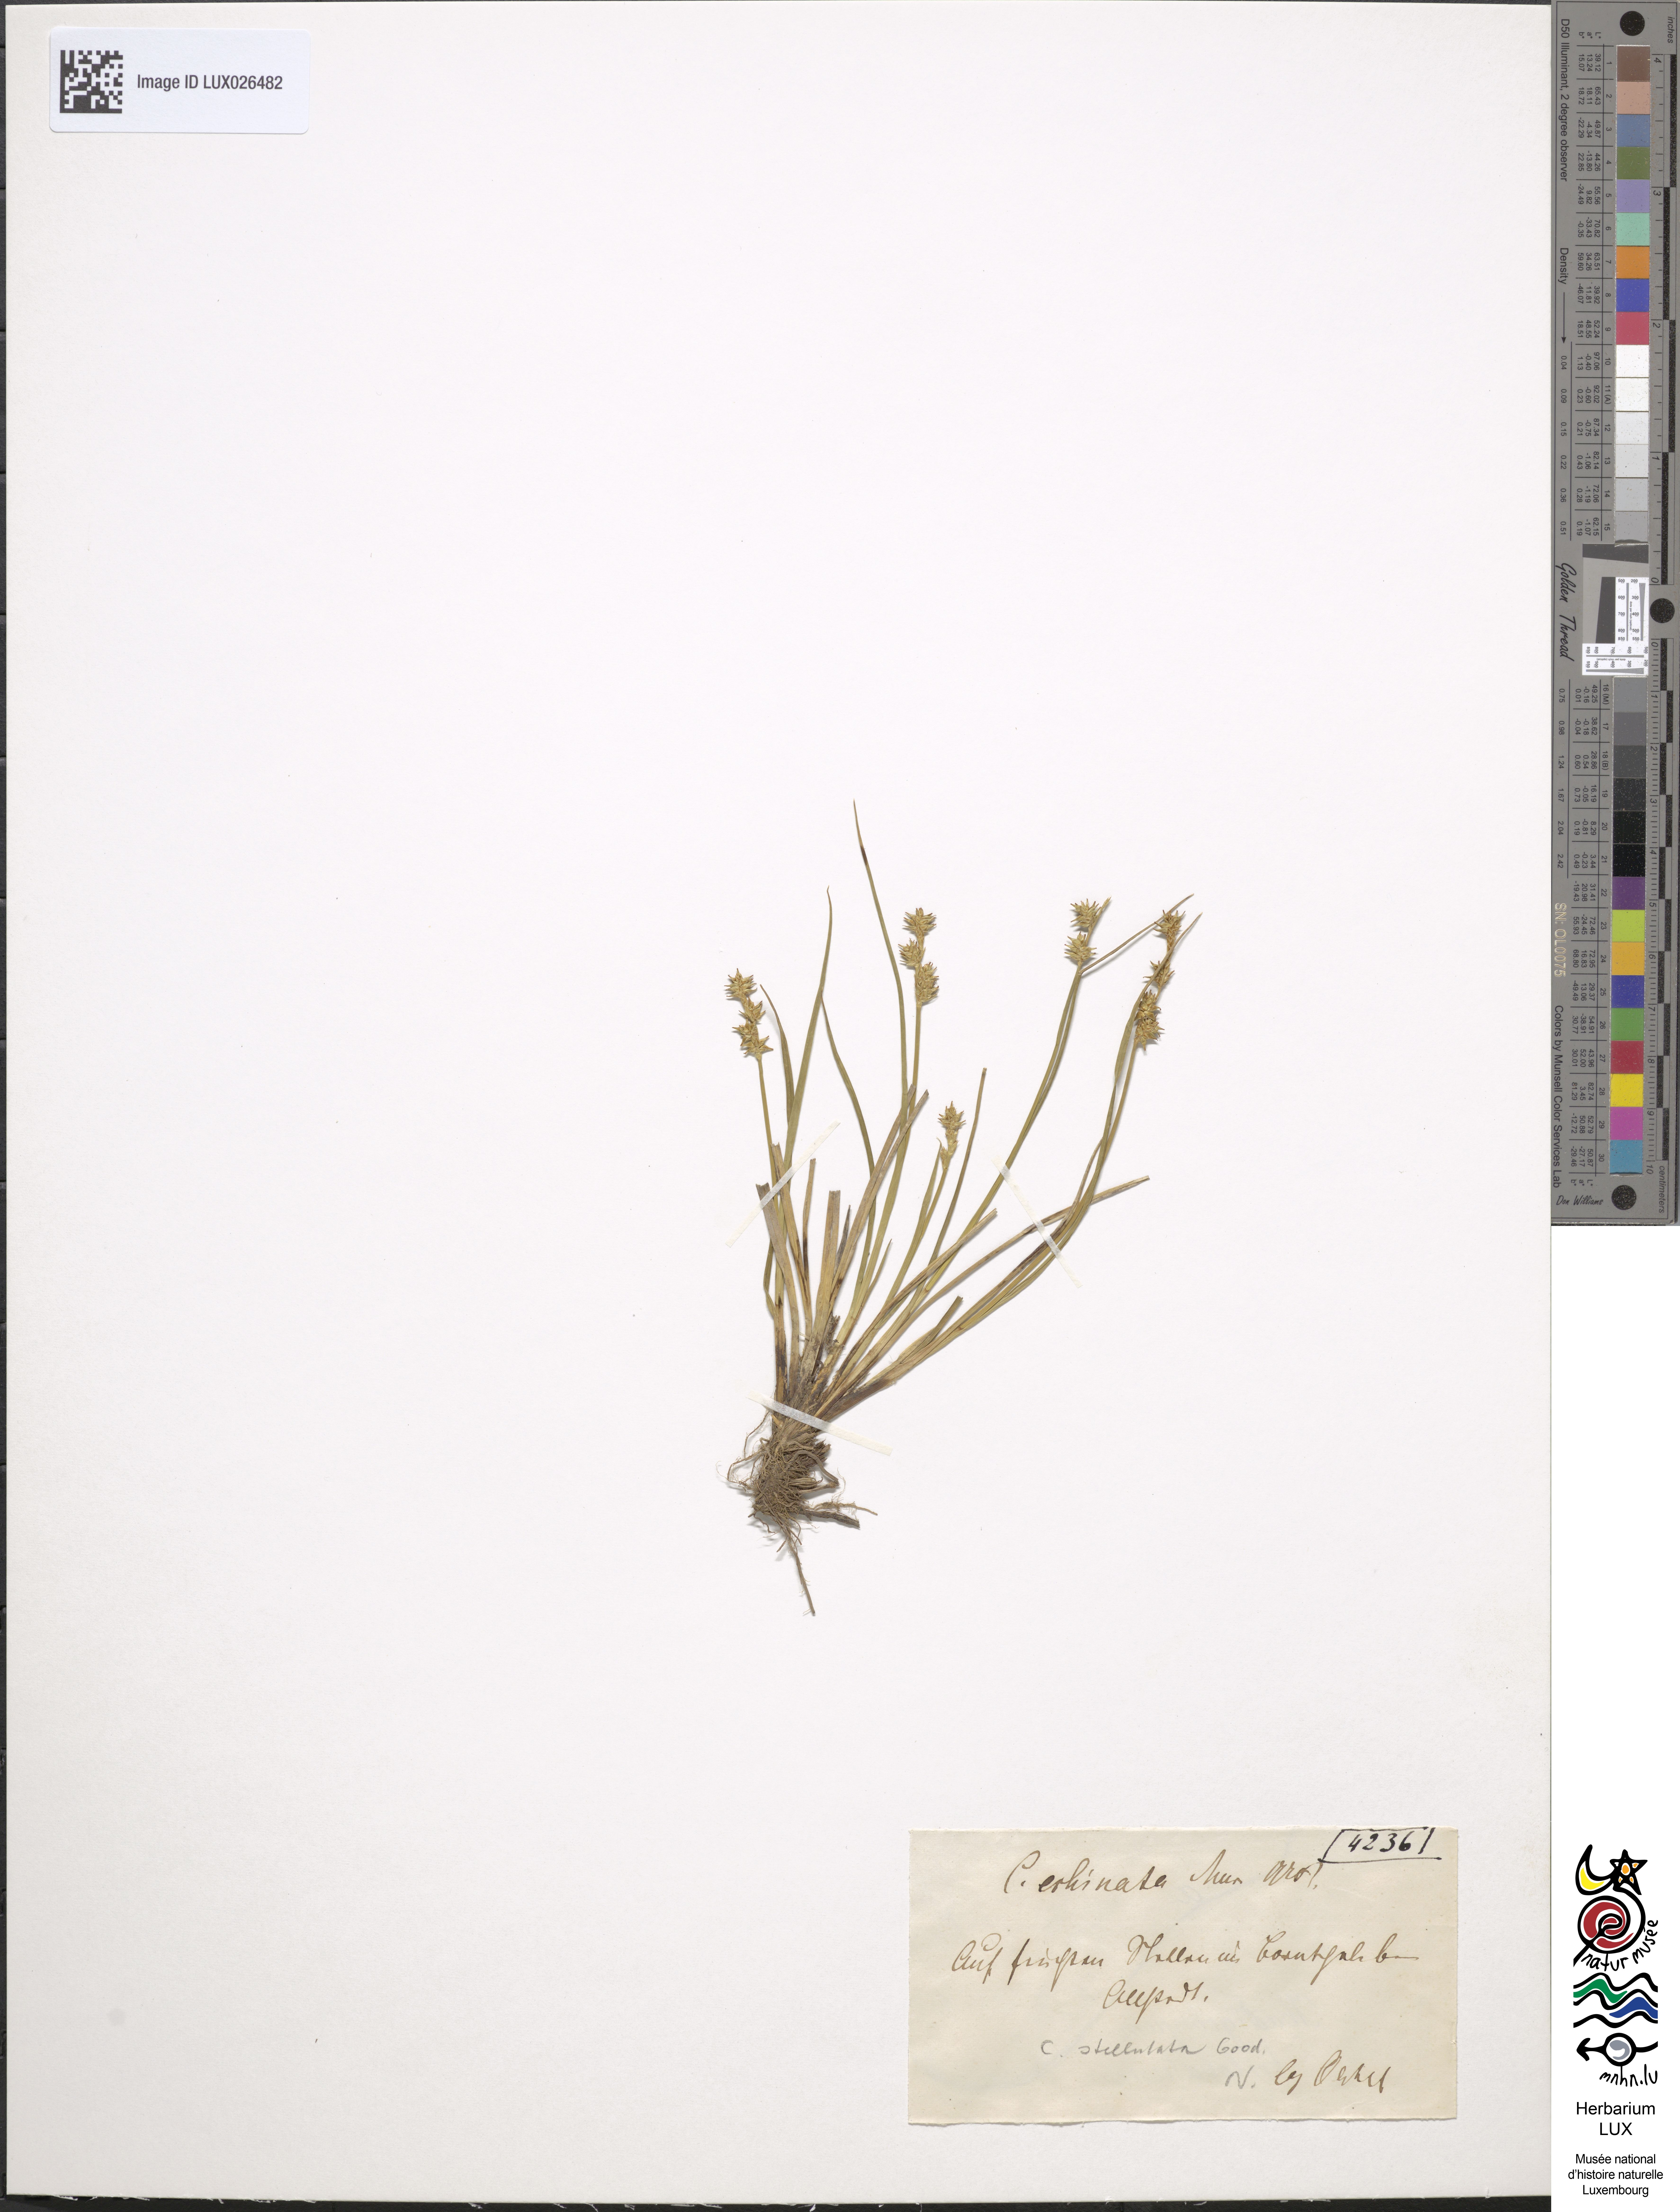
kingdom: Plantae
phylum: Tracheophyta
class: Liliopsida
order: Poales
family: Cyperaceae
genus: Carex
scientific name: Carex echinata
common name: Star sedge
